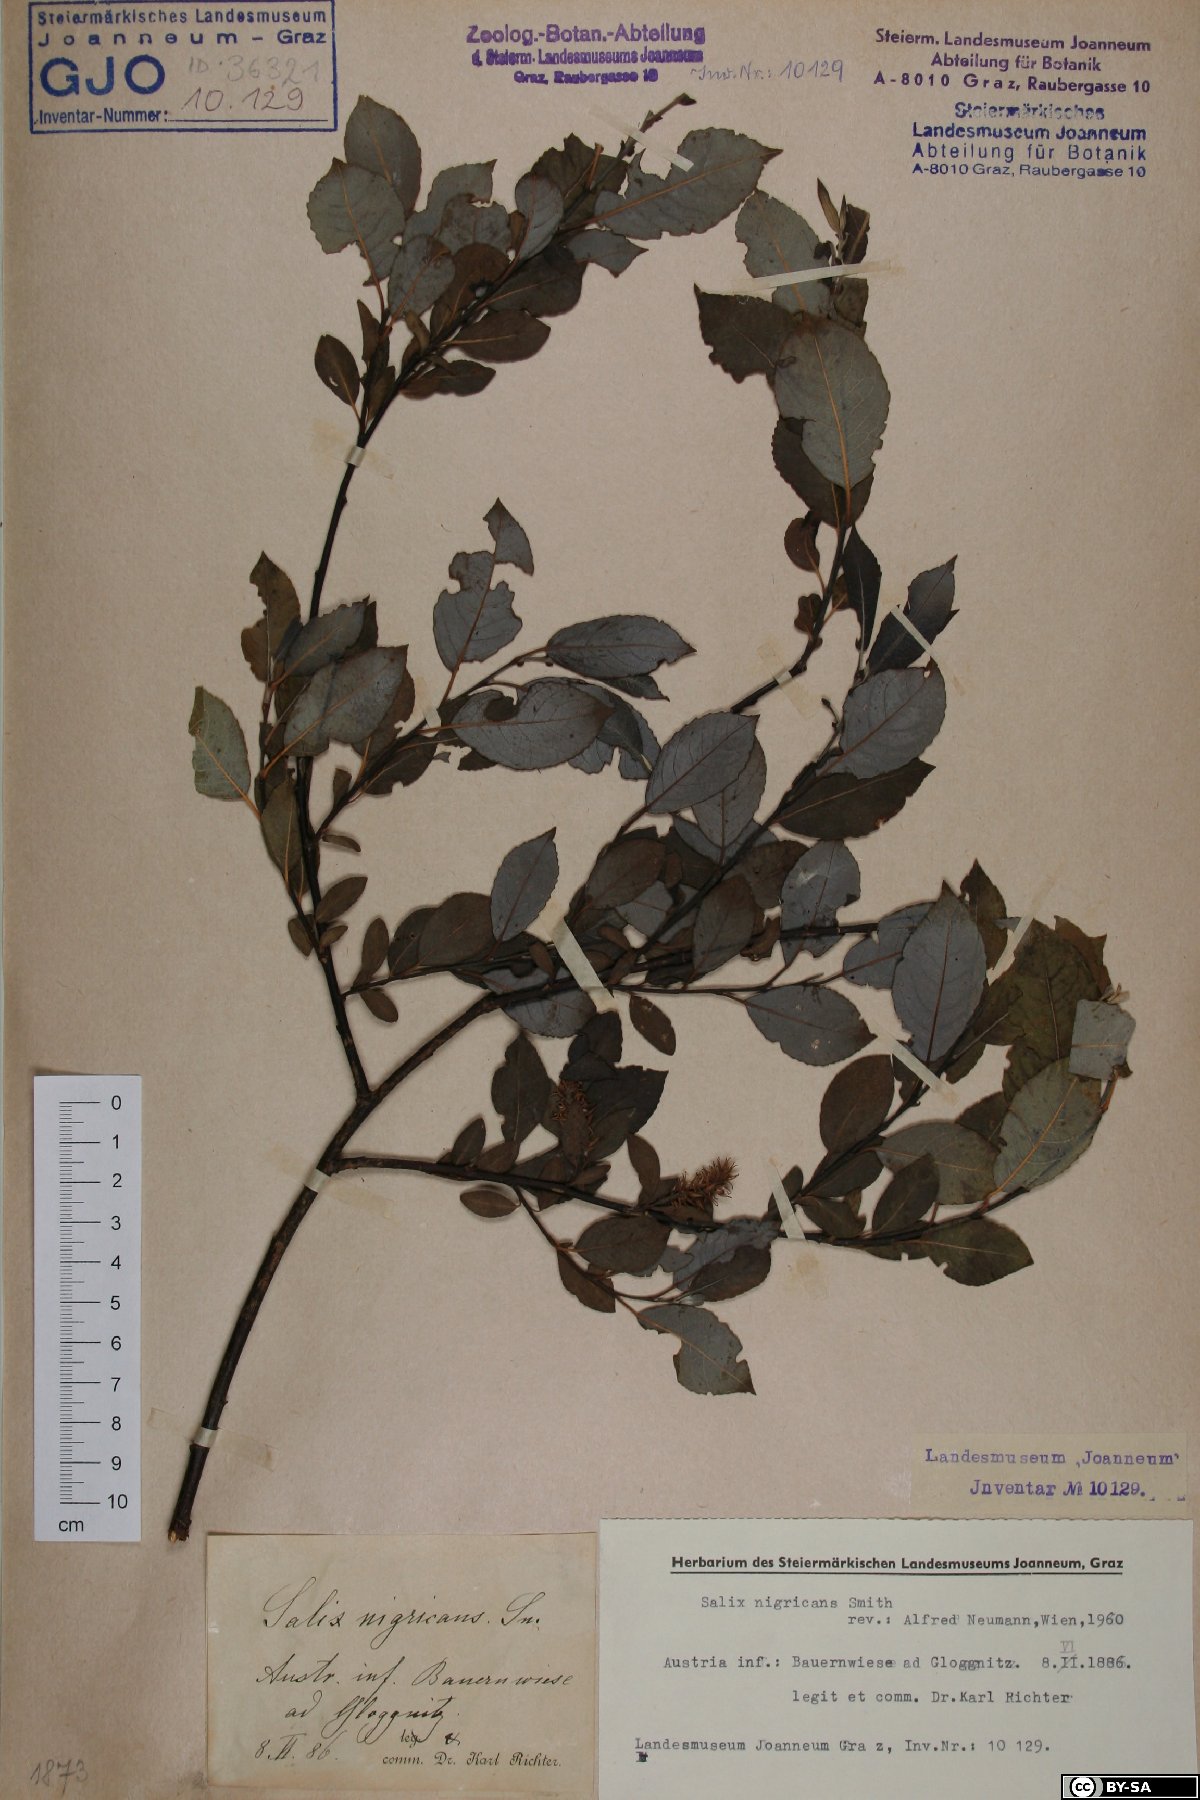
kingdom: Plantae
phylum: Tracheophyta
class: Magnoliopsida
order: Malpighiales
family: Salicaceae
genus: Salix
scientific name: Salix myrsinifolia
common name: Dark-leaved willow
